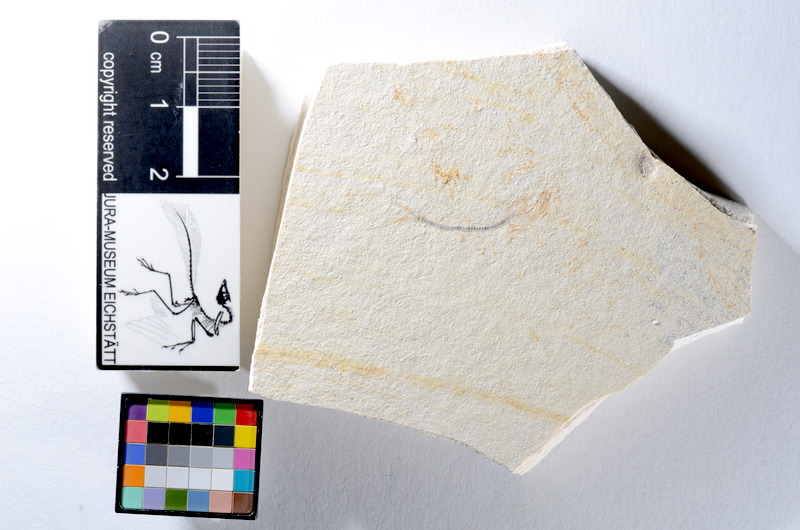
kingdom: Animalia
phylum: Chordata
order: Salmoniformes
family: Orthogonikleithridae
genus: Orthogonikleithrus
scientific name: Orthogonikleithrus hoelli
